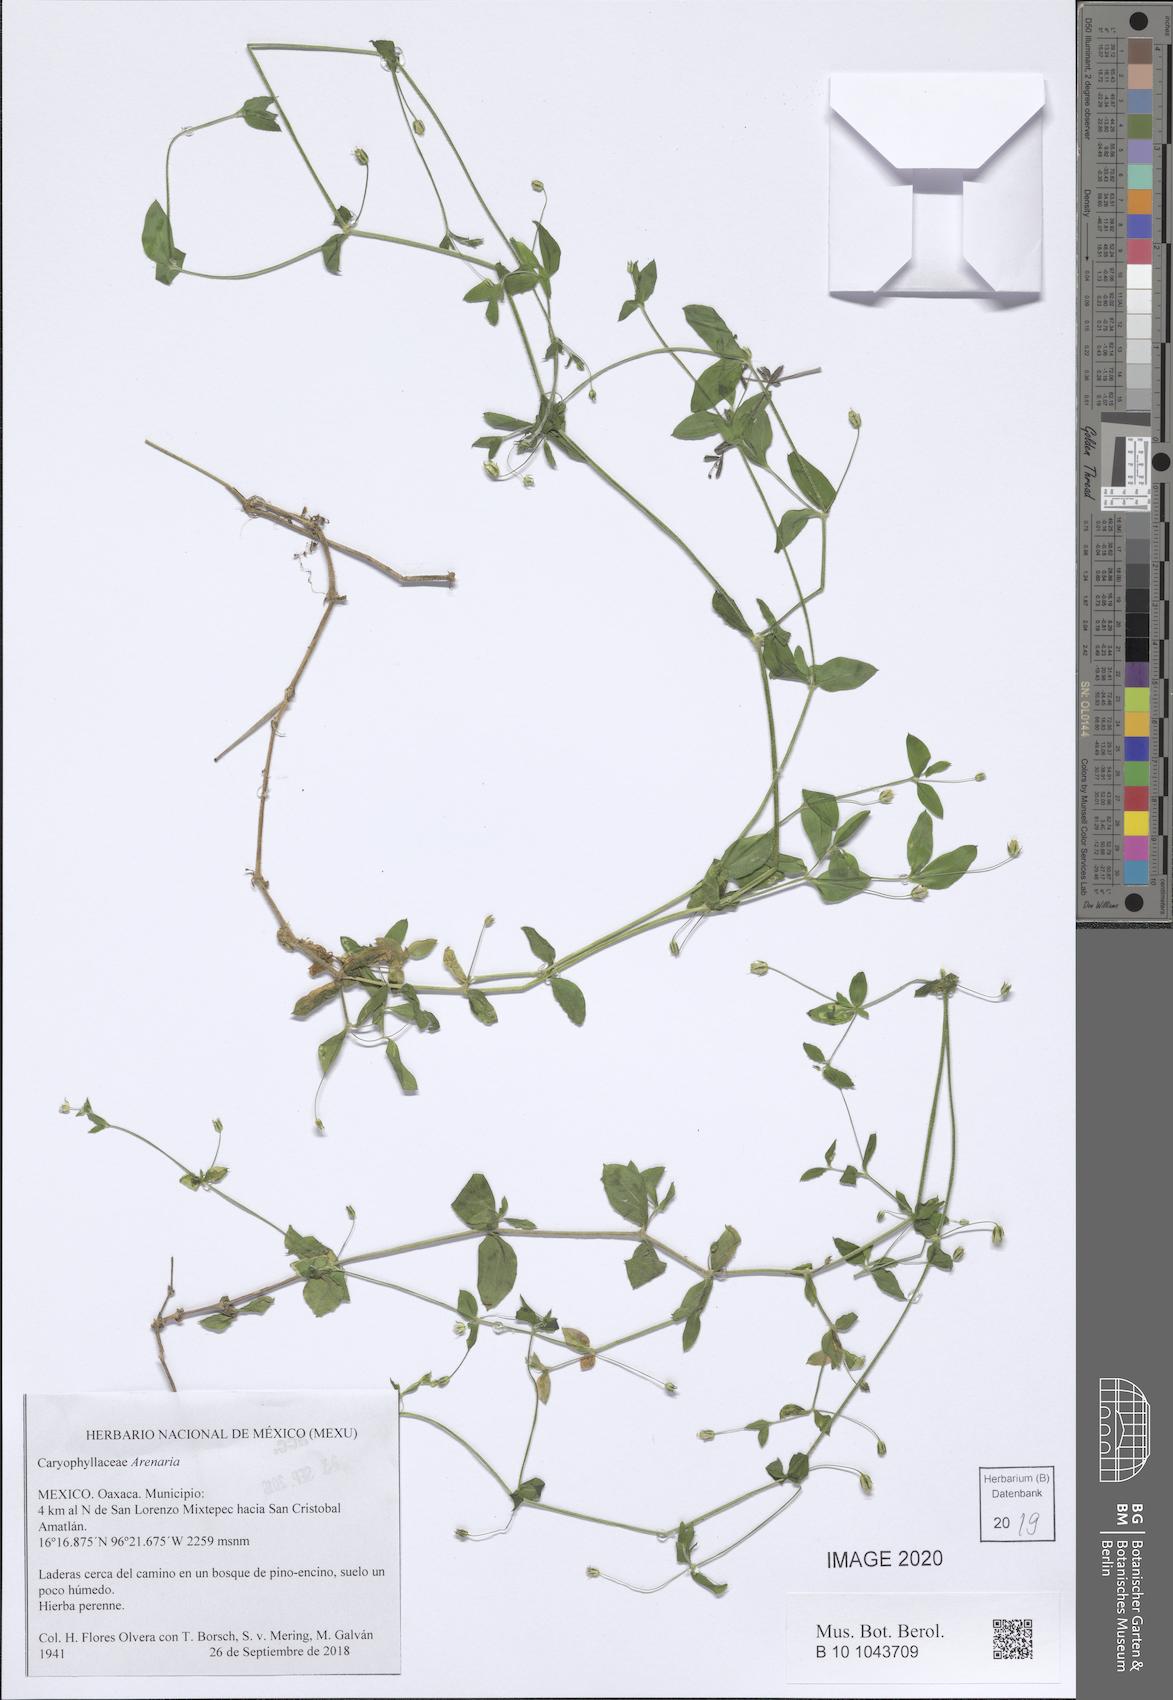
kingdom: Plantae
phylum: Tracheophyta
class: Magnoliopsida
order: Caryophyllales
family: Caryophyllaceae
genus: Arenaria
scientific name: Arenaria
